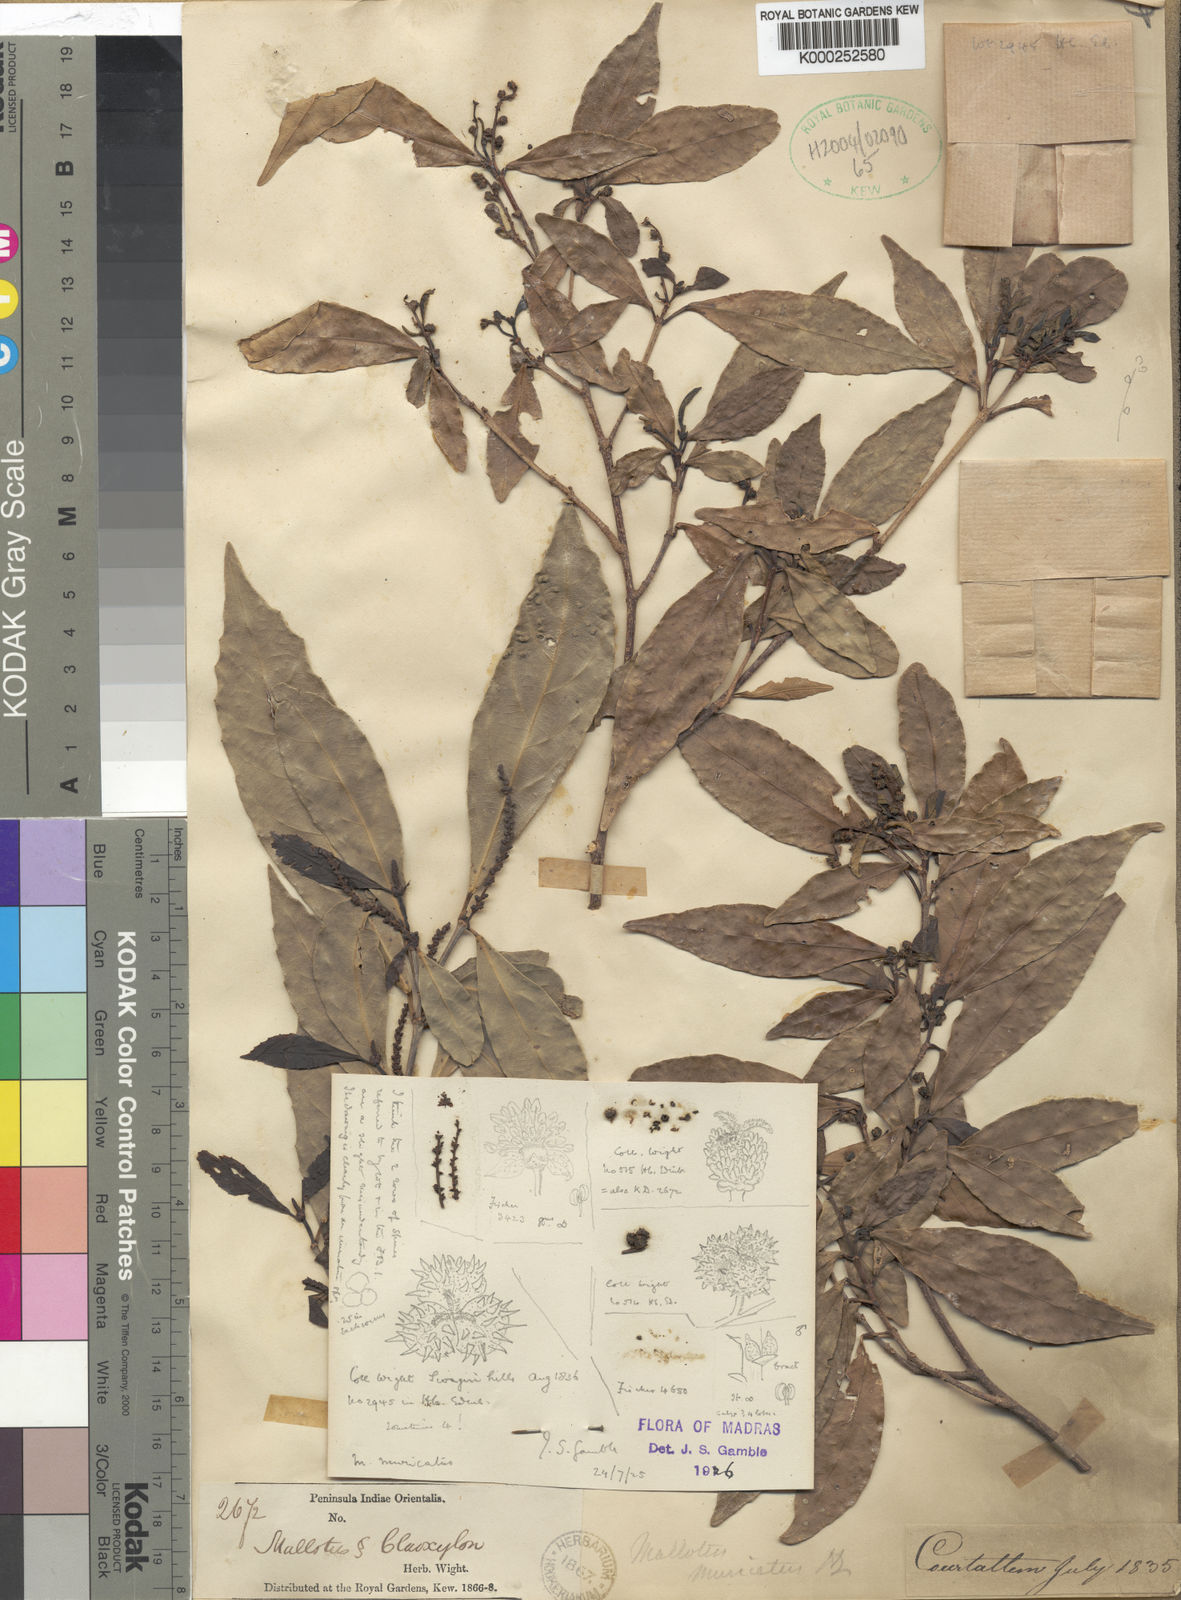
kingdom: Plantae
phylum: Tracheophyta
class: Magnoliopsida
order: Malpighiales
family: Euphorbiaceae
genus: Mallotus
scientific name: Mallotus resinosus
